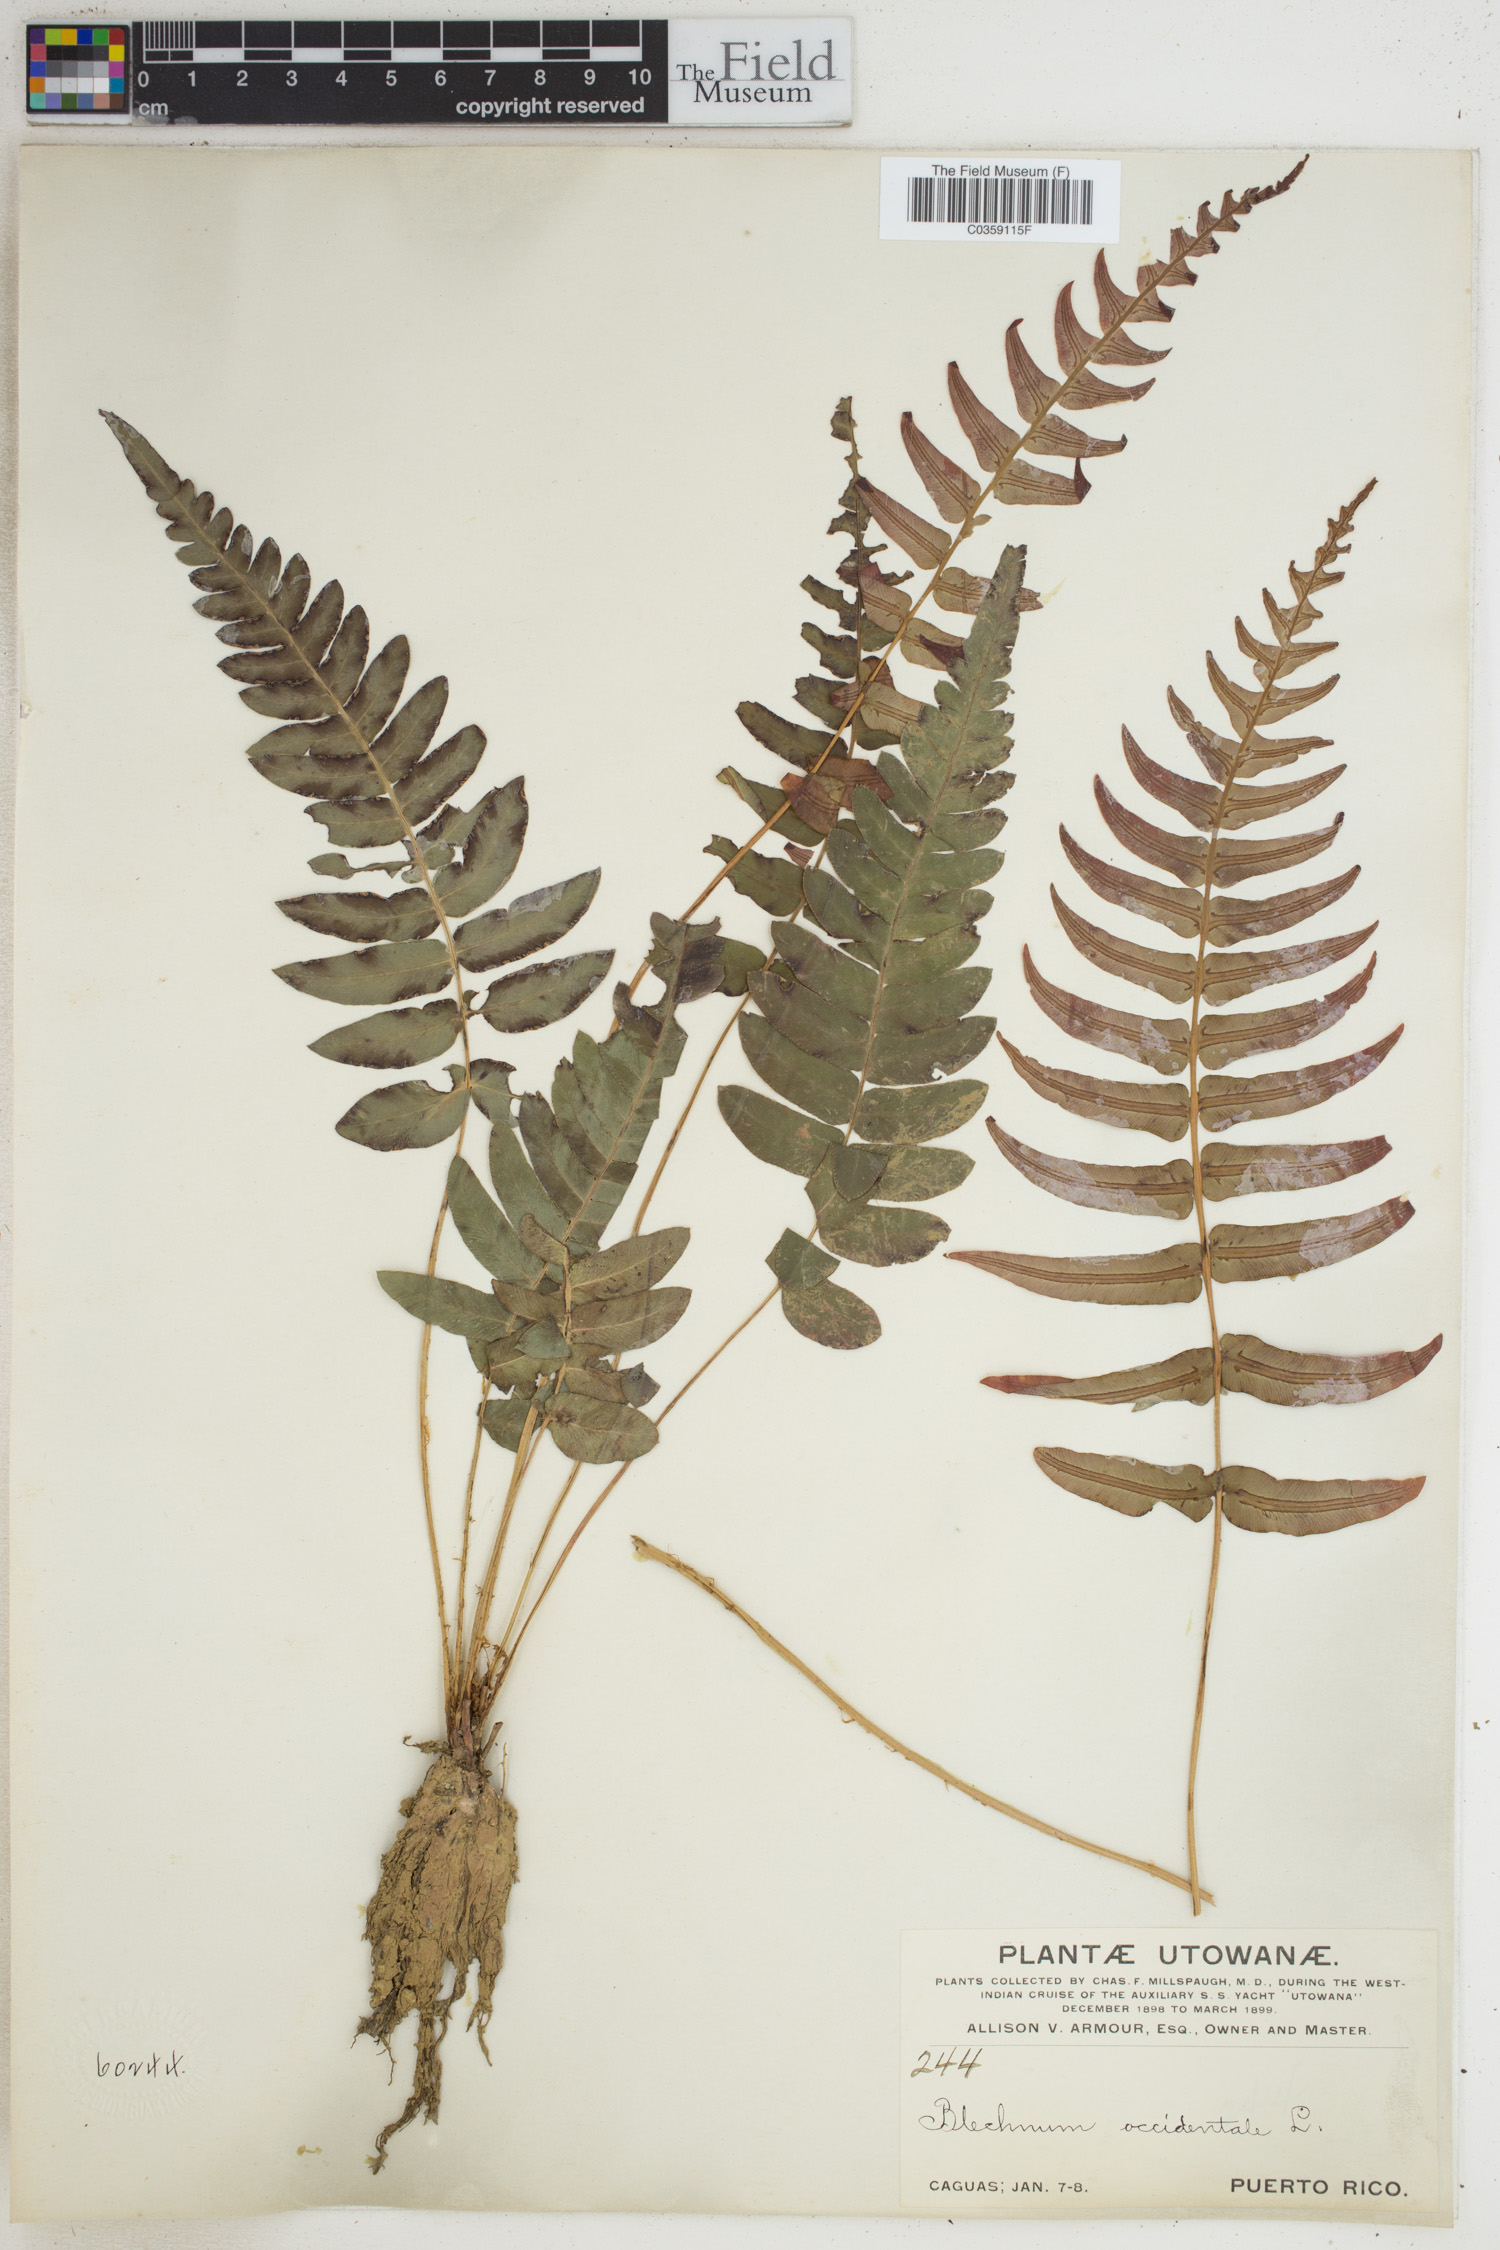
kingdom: Plantae
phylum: Tracheophyta
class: Polypodiopsida
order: Polypodiales
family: Blechnaceae
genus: Blechnum
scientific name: Blechnum occidentale
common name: Hammock fern
